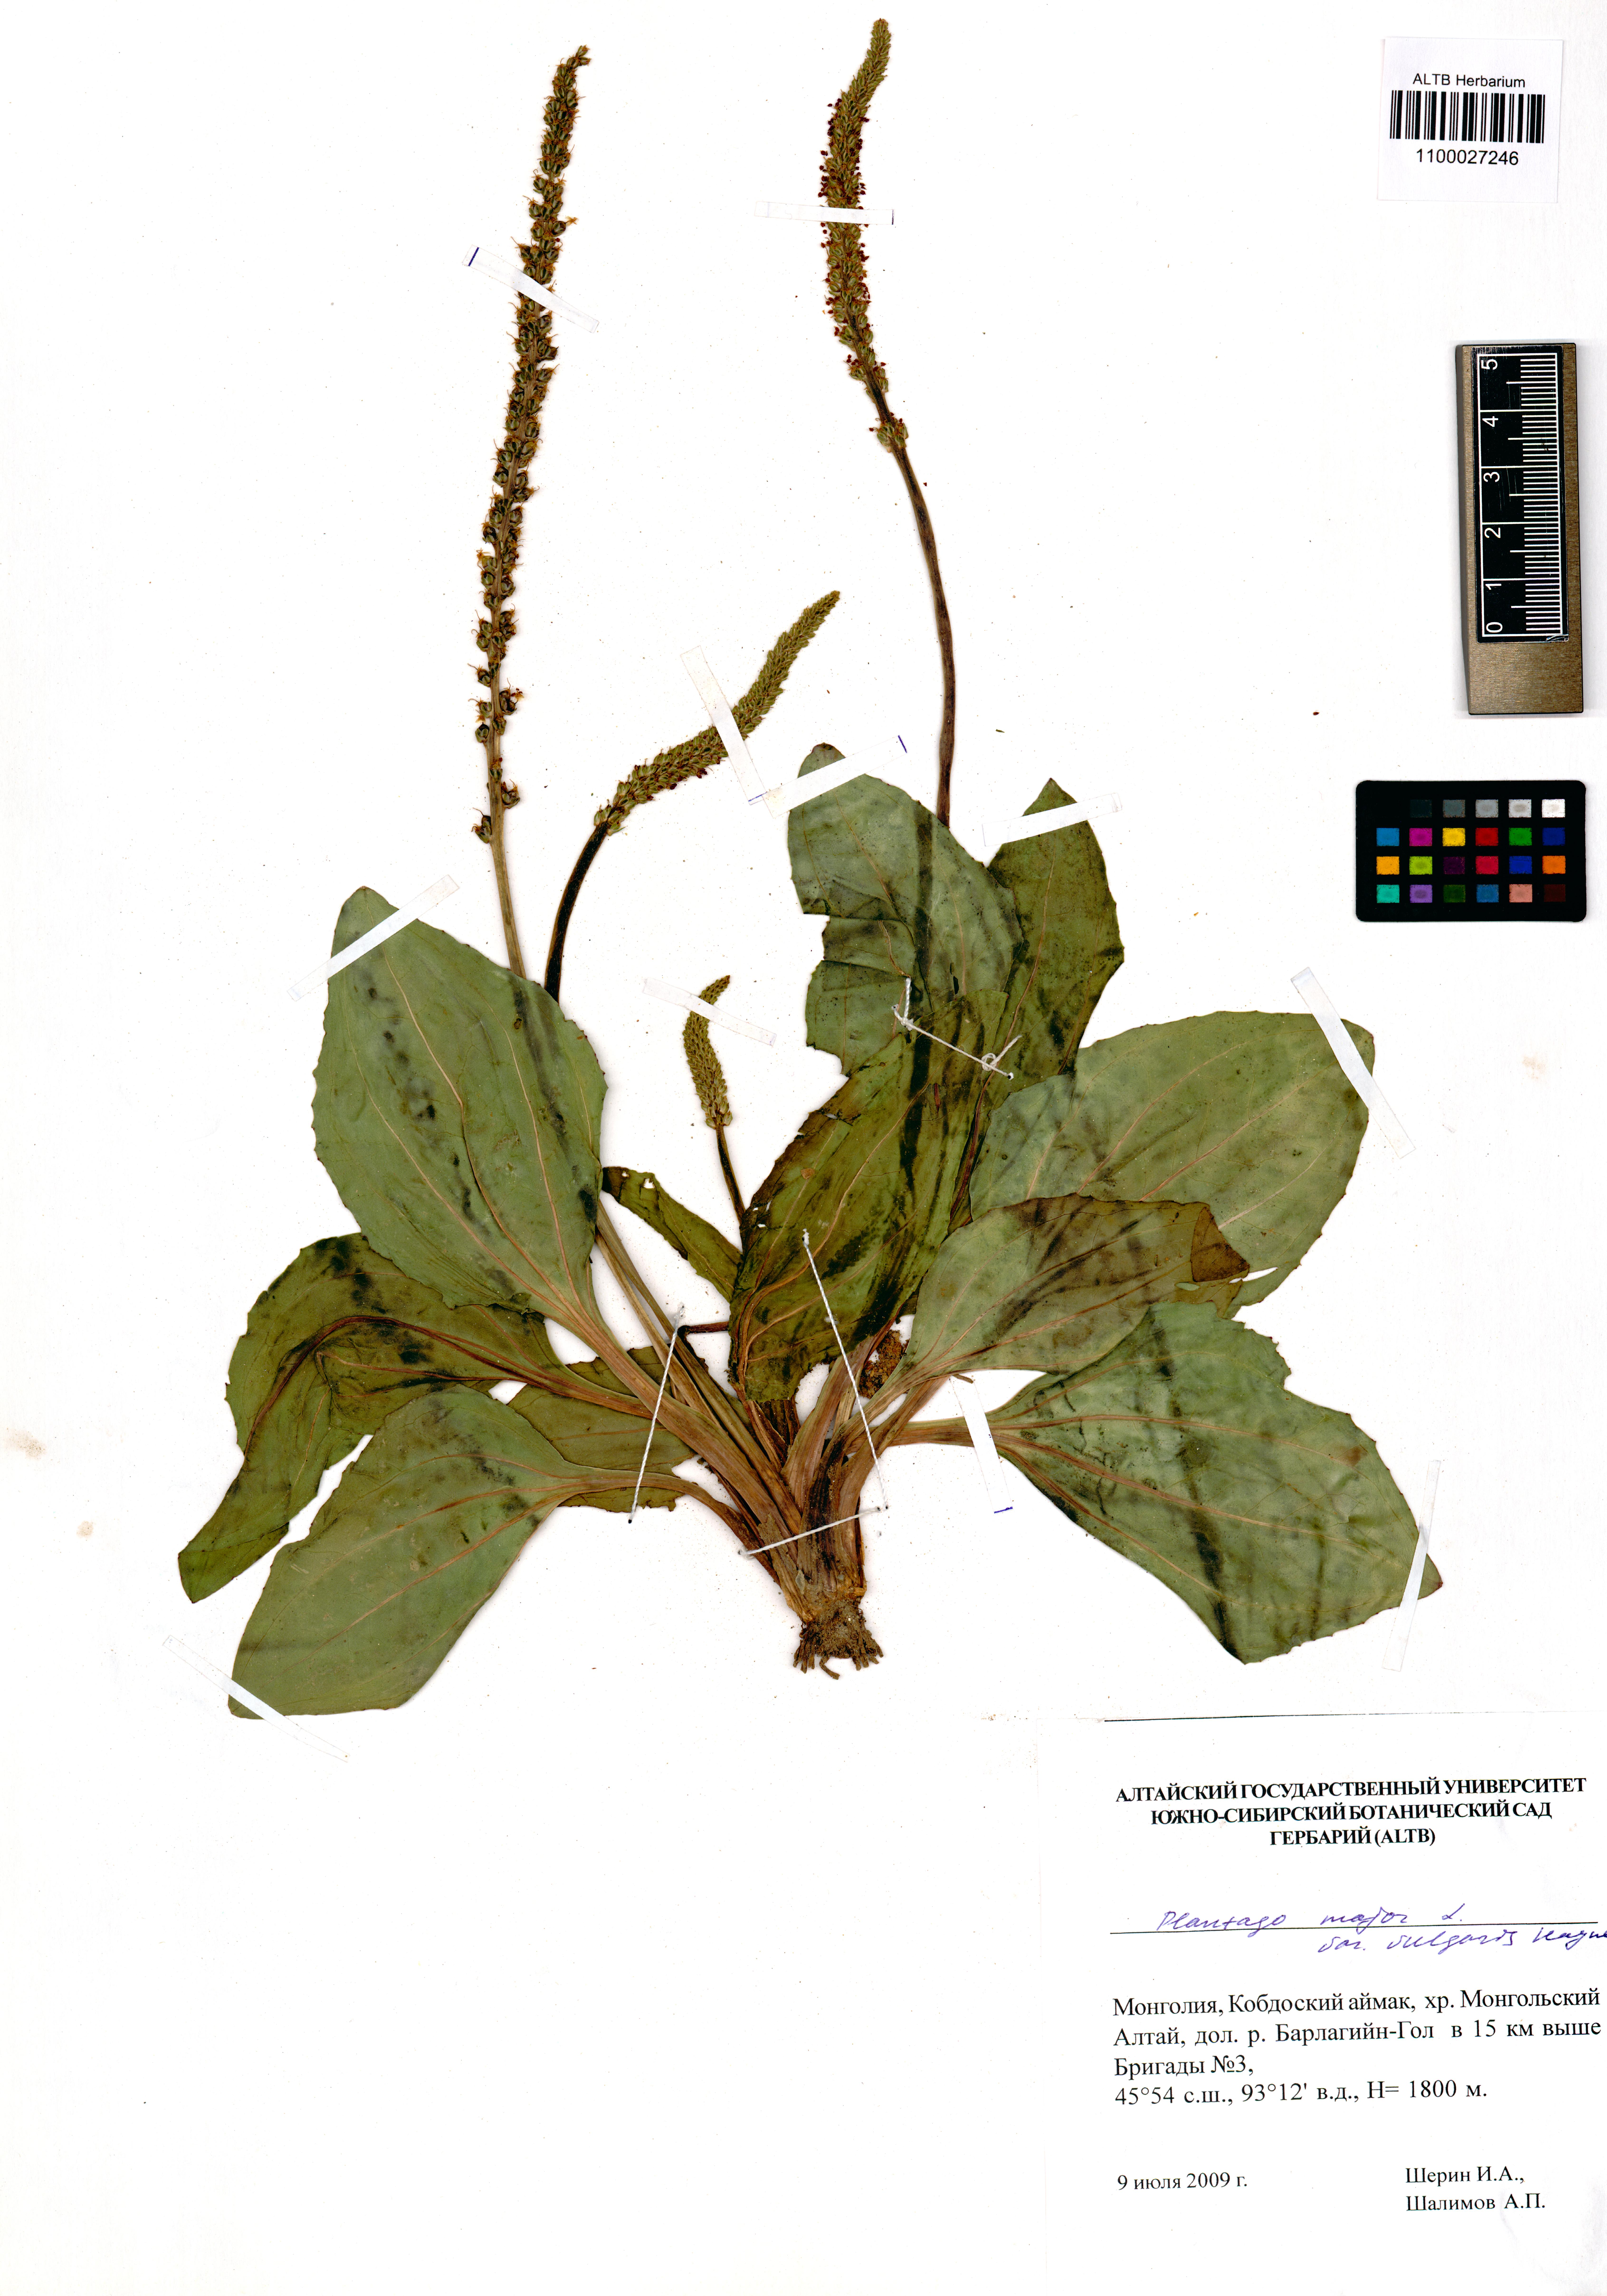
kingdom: Plantae
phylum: Tracheophyta
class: Magnoliopsida
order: Lamiales
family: Plantaginaceae
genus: Plantago
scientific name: Plantago major
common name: Common plantain
